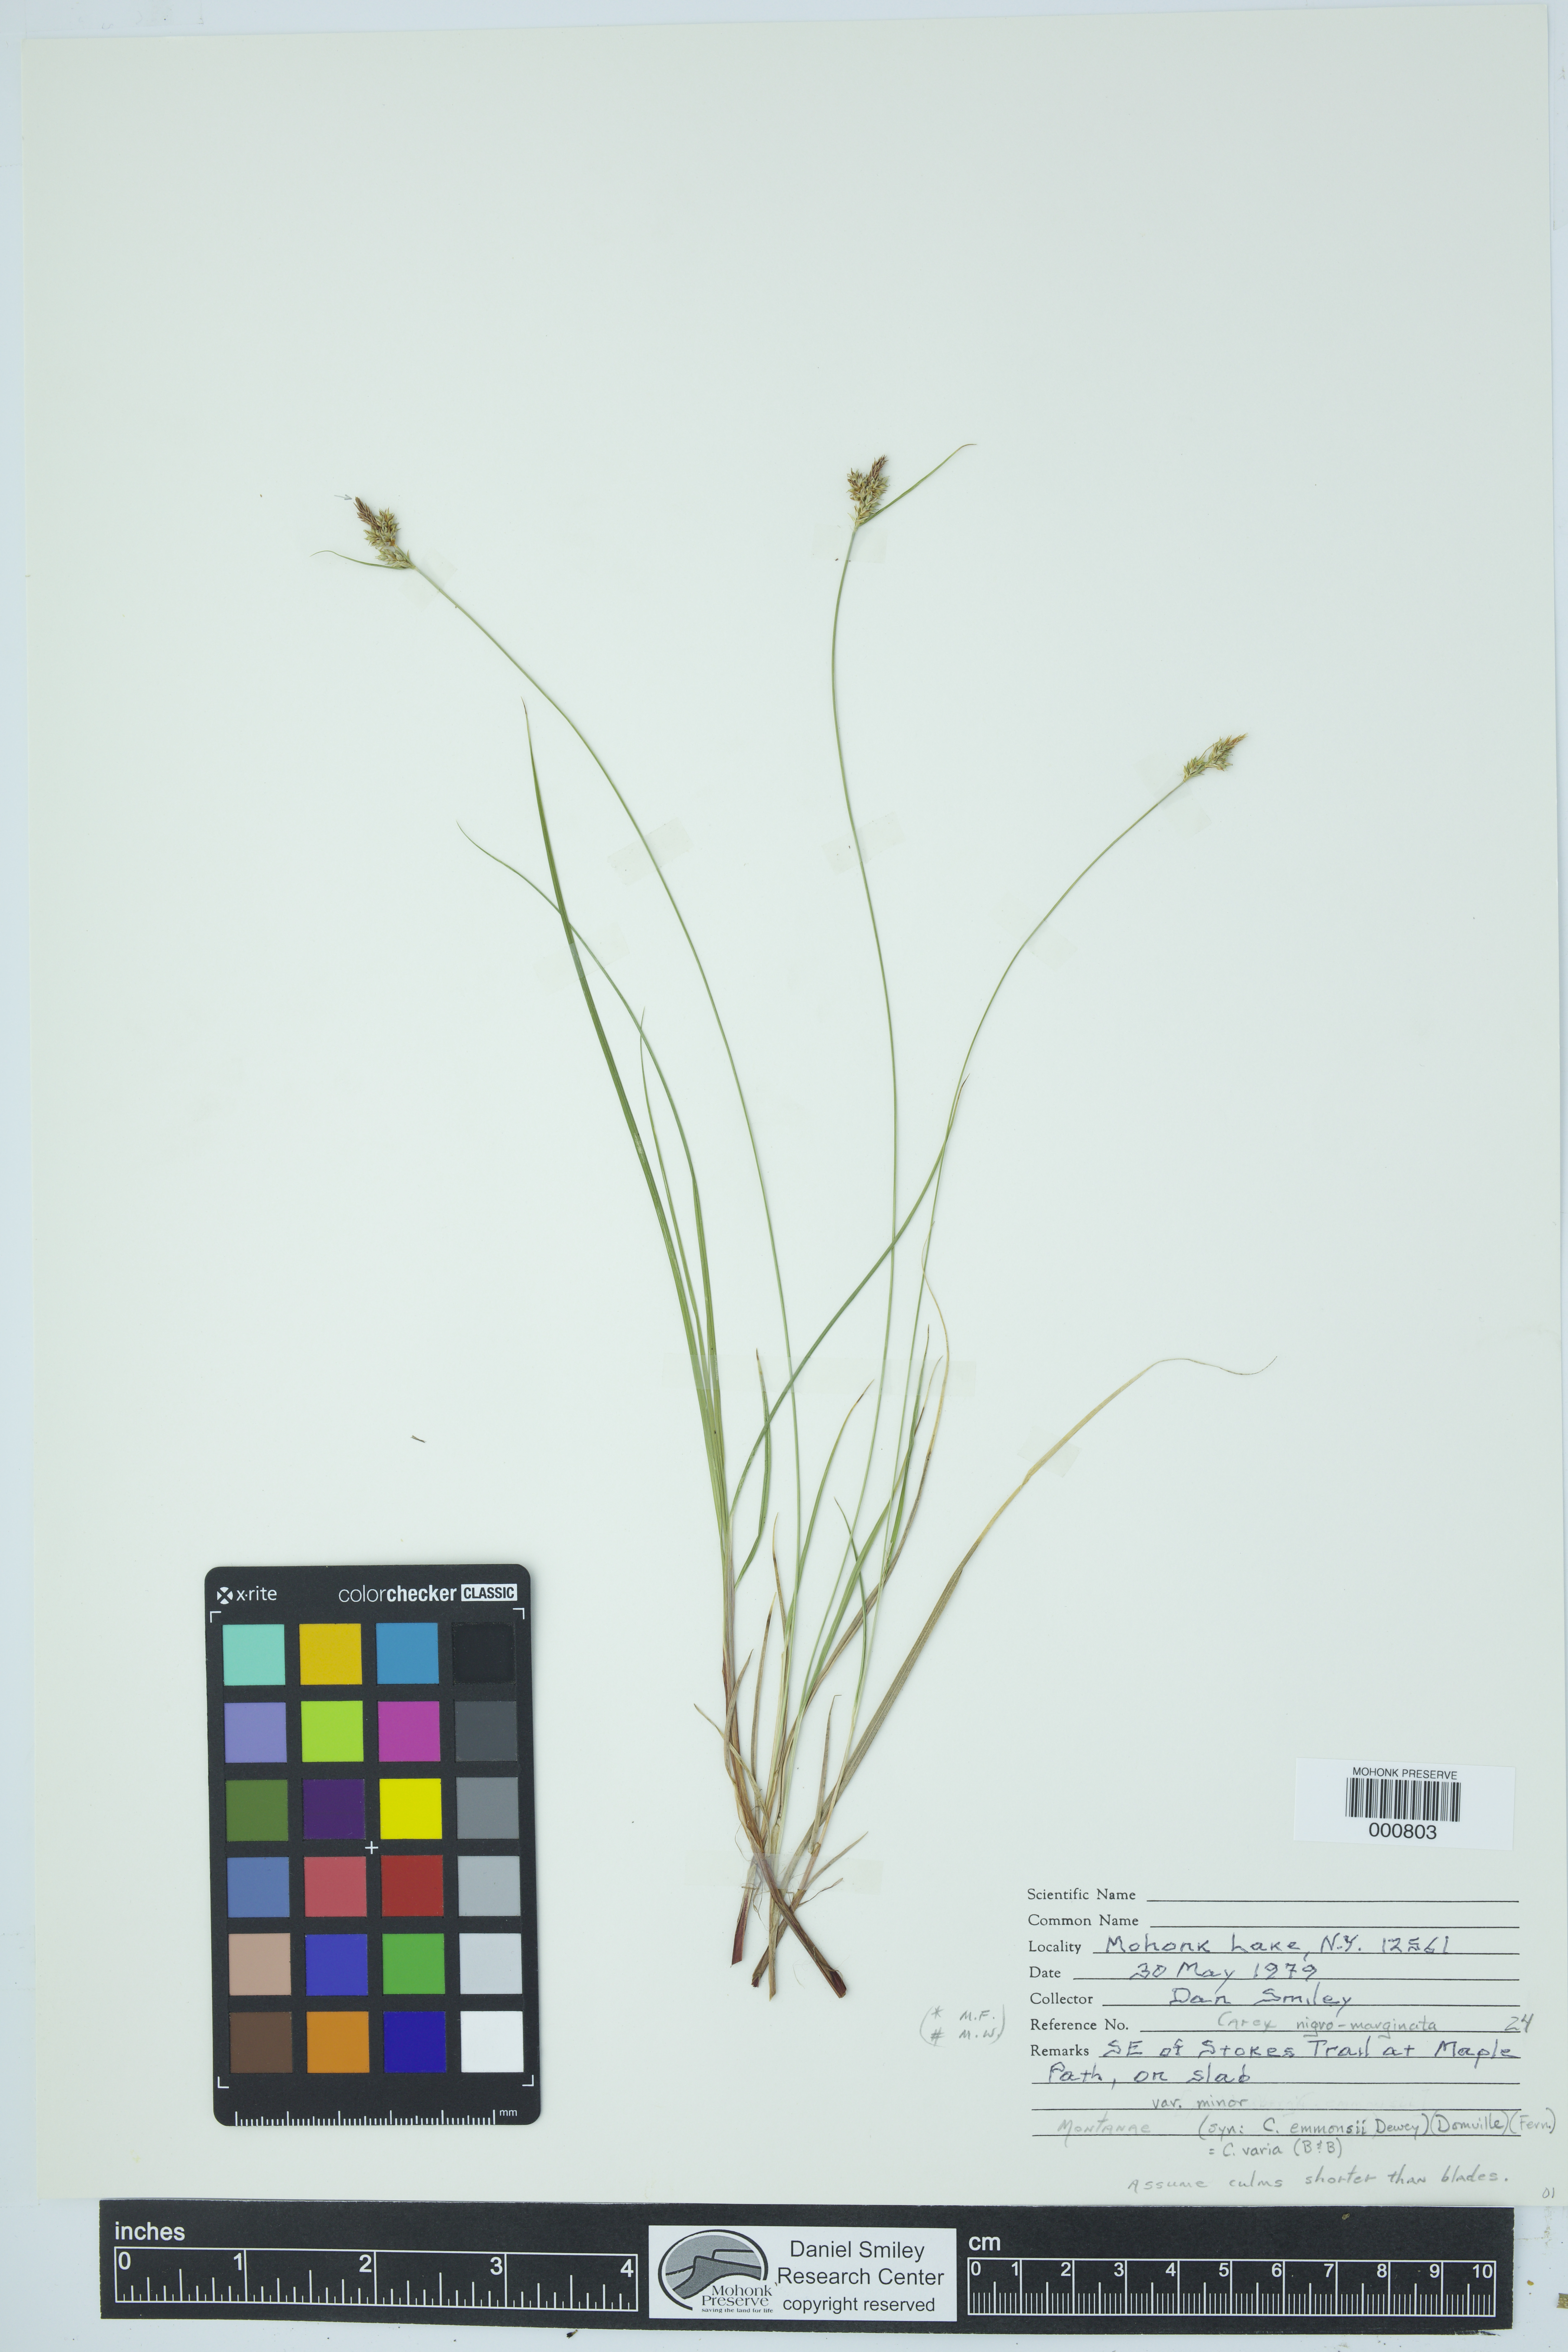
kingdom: Plantae
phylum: Tracheophyta
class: Liliopsida
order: Poales
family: Cyperaceae
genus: Carex
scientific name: Carex nigromarginata
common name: Black-edged sedge
